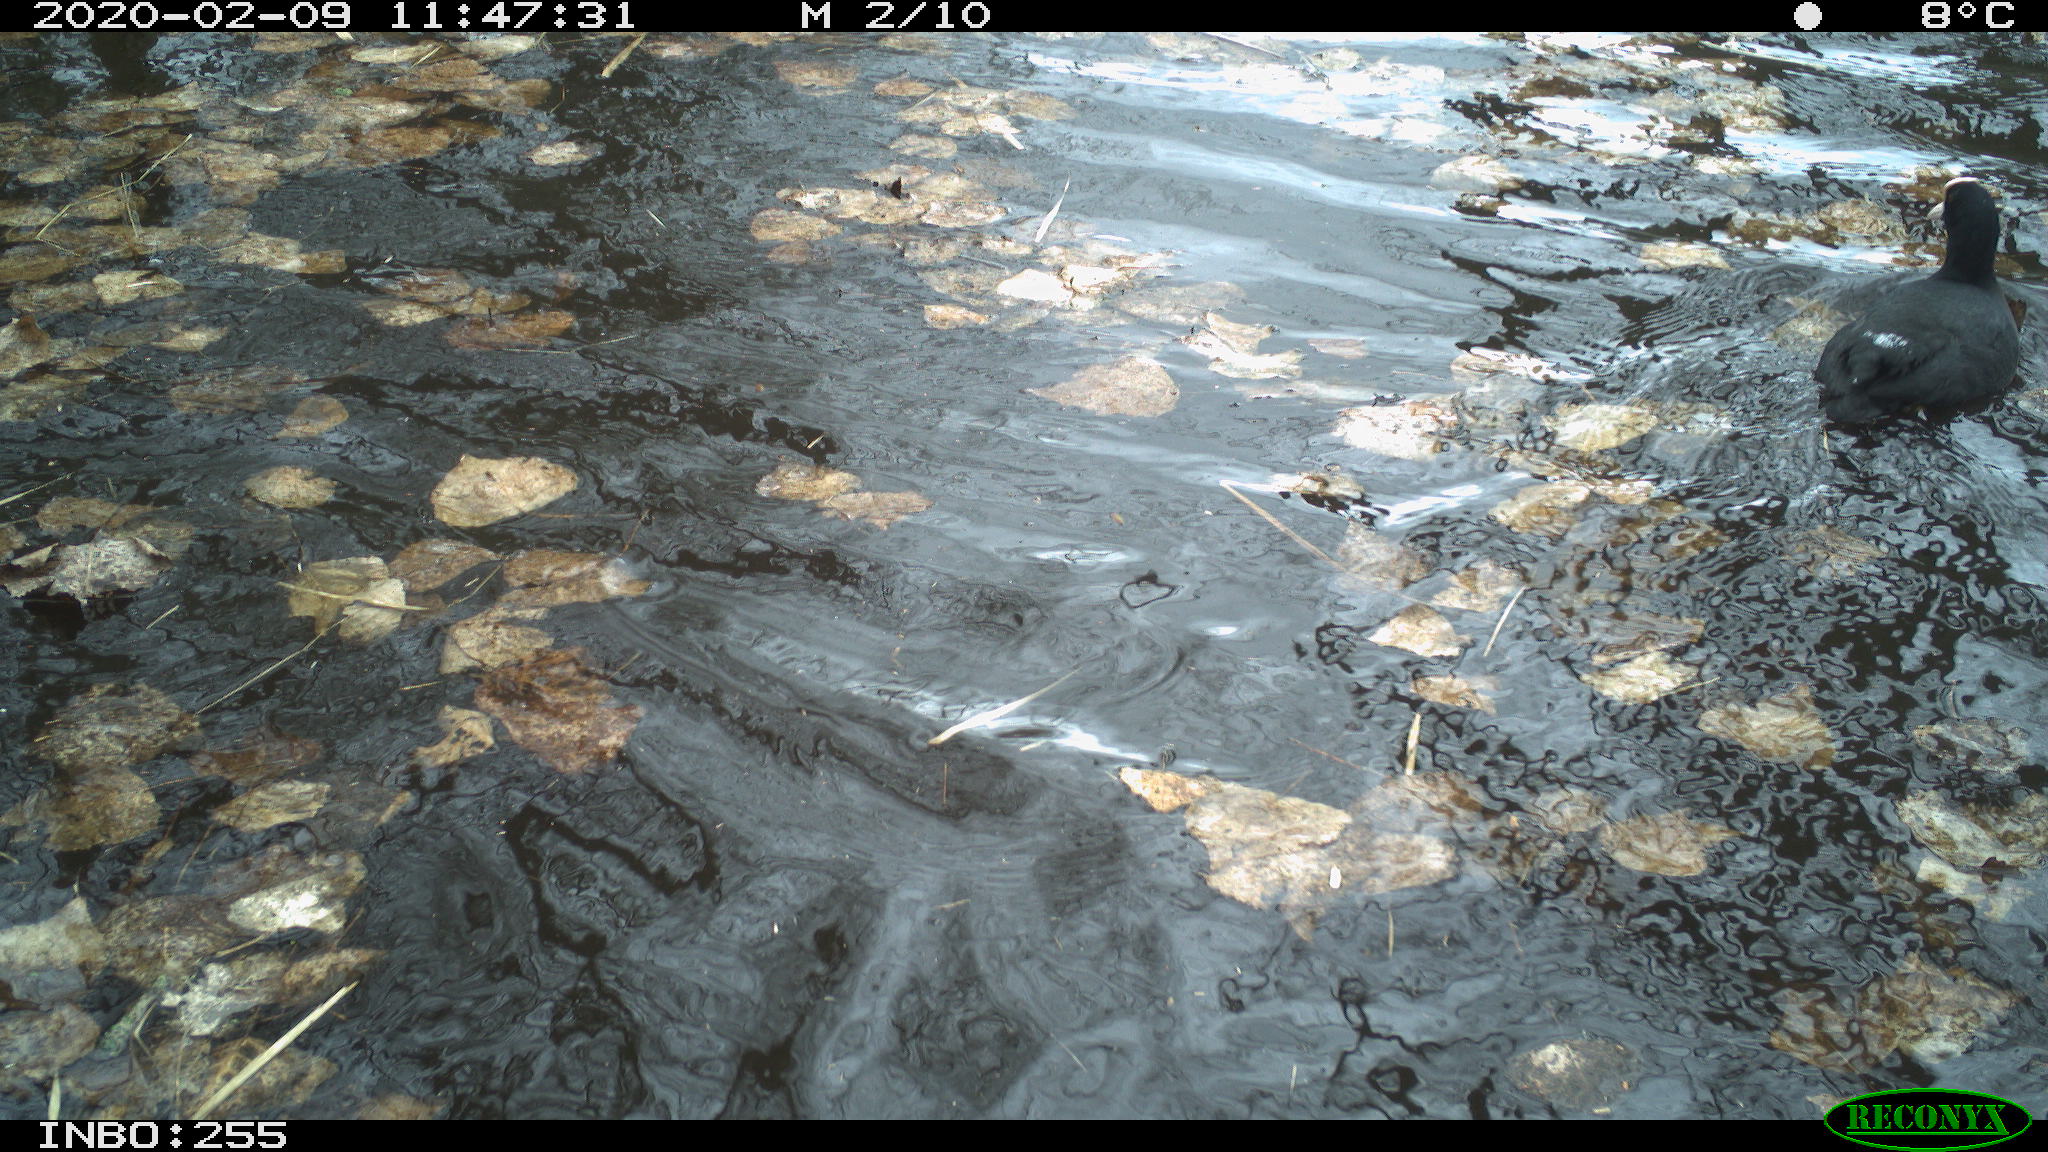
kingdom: Animalia
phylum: Chordata
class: Aves
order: Gruiformes
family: Rallidae
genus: Fulica
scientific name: Fulica atra
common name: Eurasian coot
